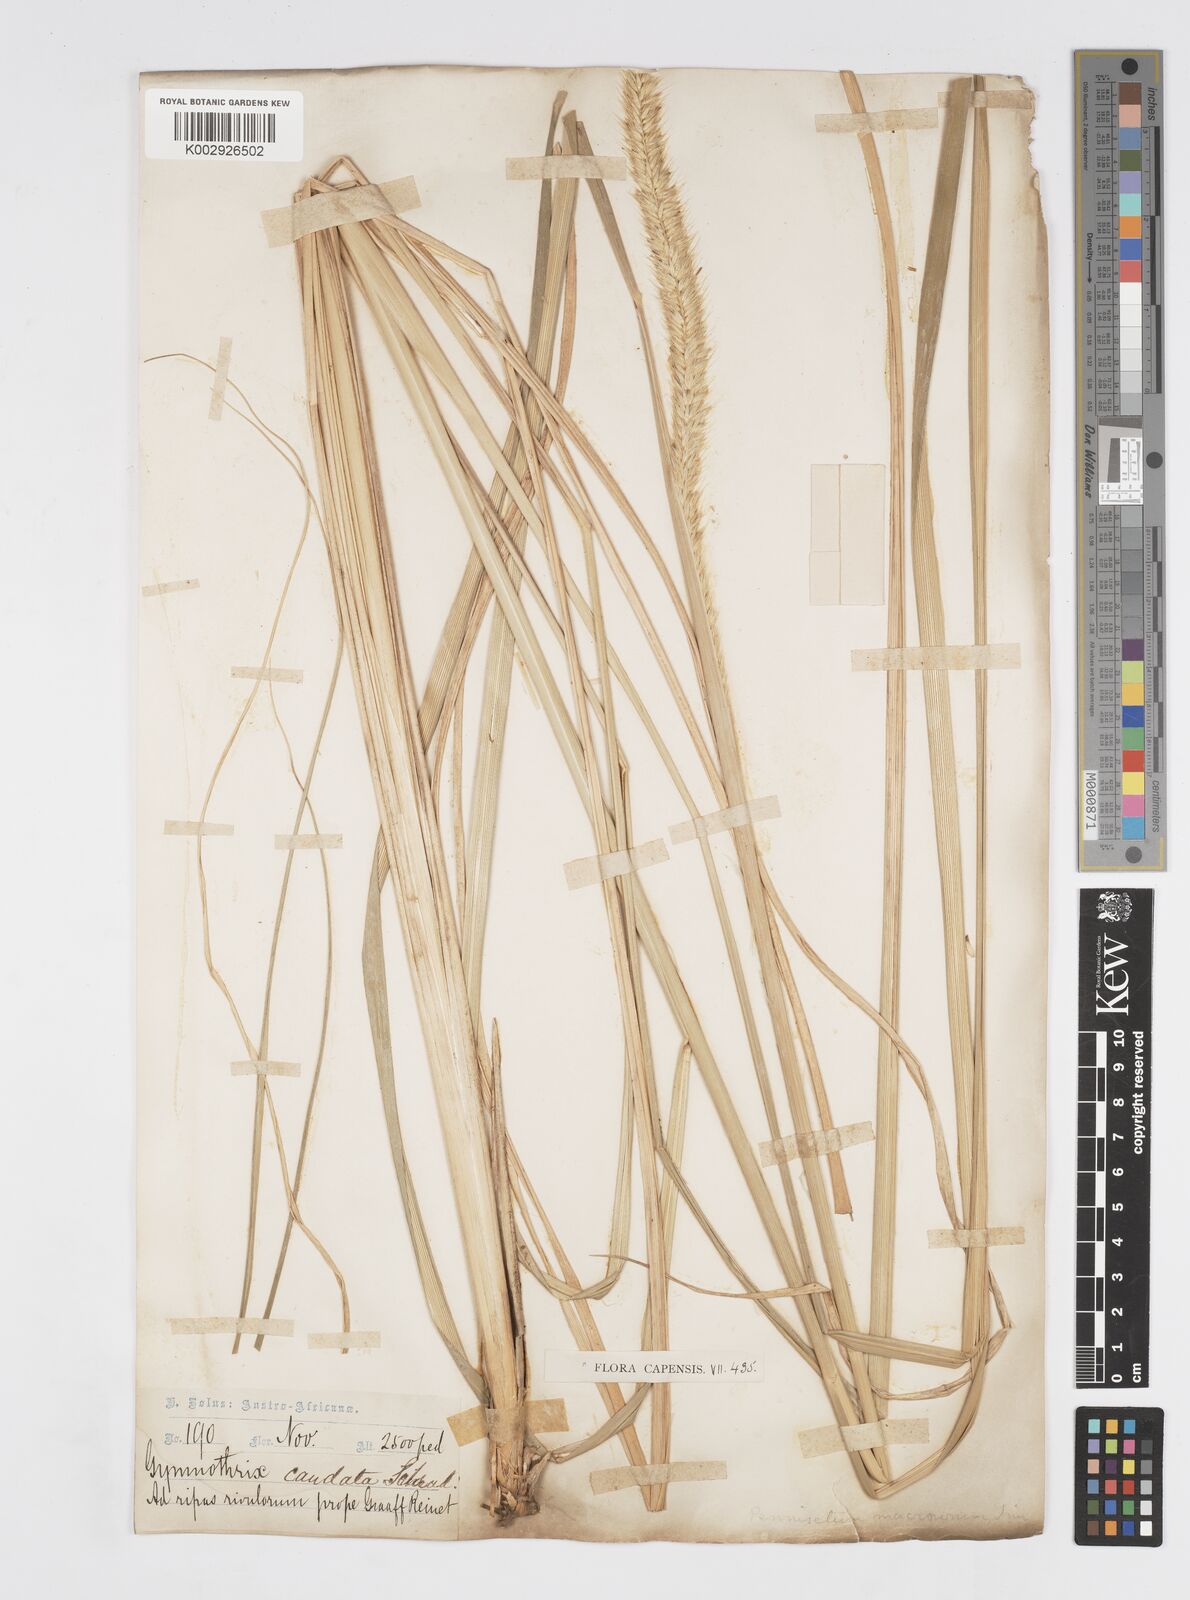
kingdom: Plantae
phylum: Tracheophyta
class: Liliopsida
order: Poales
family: Poaceae
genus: Cenchrus
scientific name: Cenchrus caudatus
